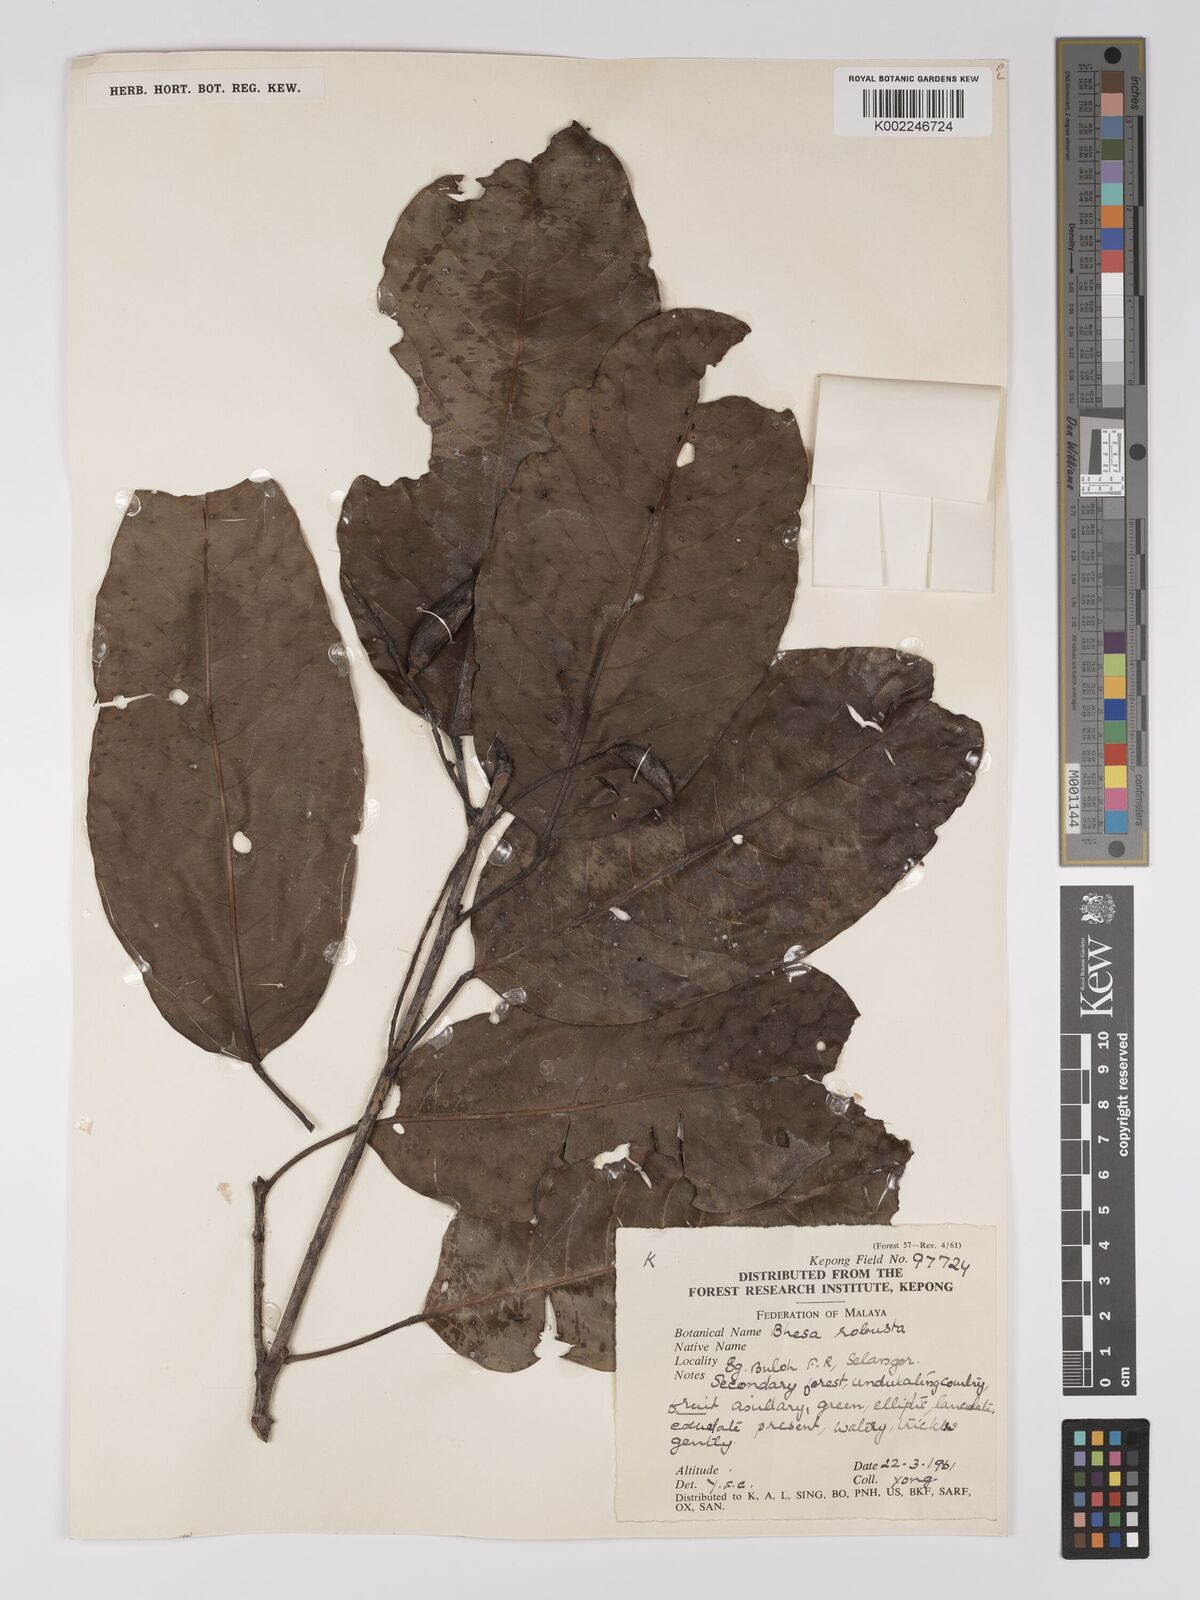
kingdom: Plantae
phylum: Tracheophyta
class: Magnoliopsida
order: Malpighiales
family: Centroplacaceae
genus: Bhesa
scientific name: Bhesa robusta
